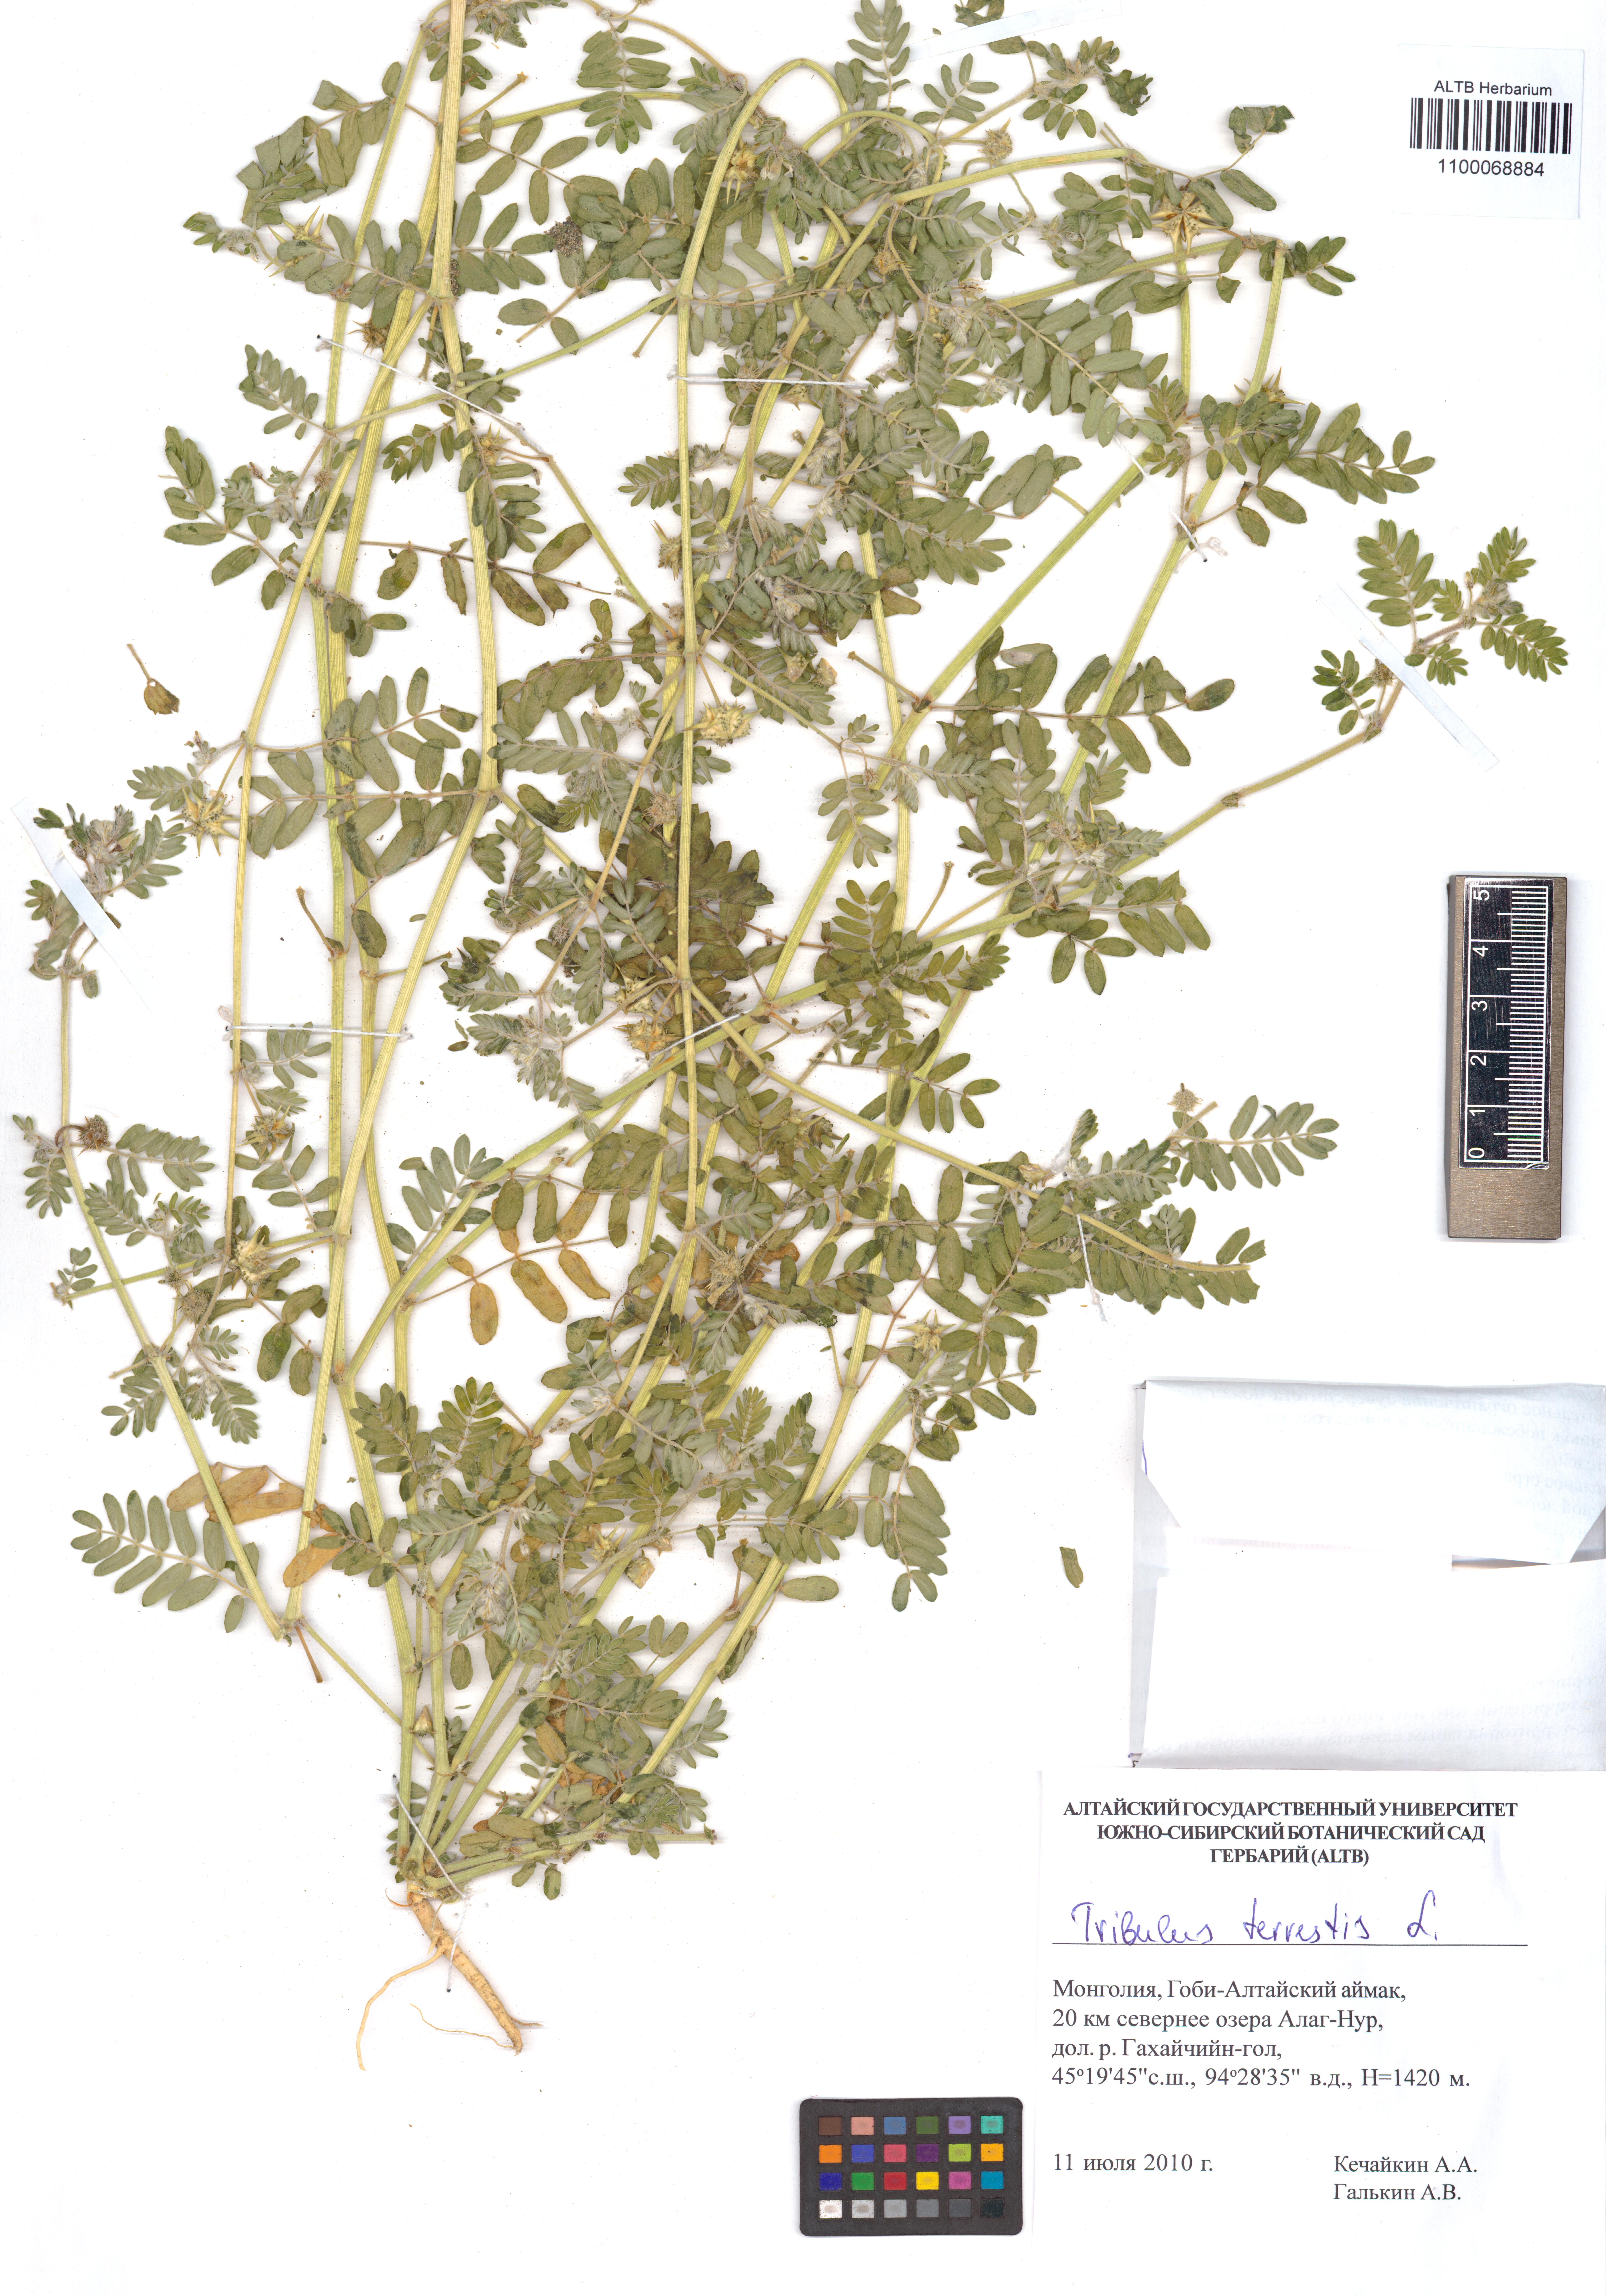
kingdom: Plantae
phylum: Tracheophyta
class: Magnoliopsida
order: Zygophyllales
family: Zygophyllaceae
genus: Tribulus
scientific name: Tribulus terrestris
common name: Puncturevine
